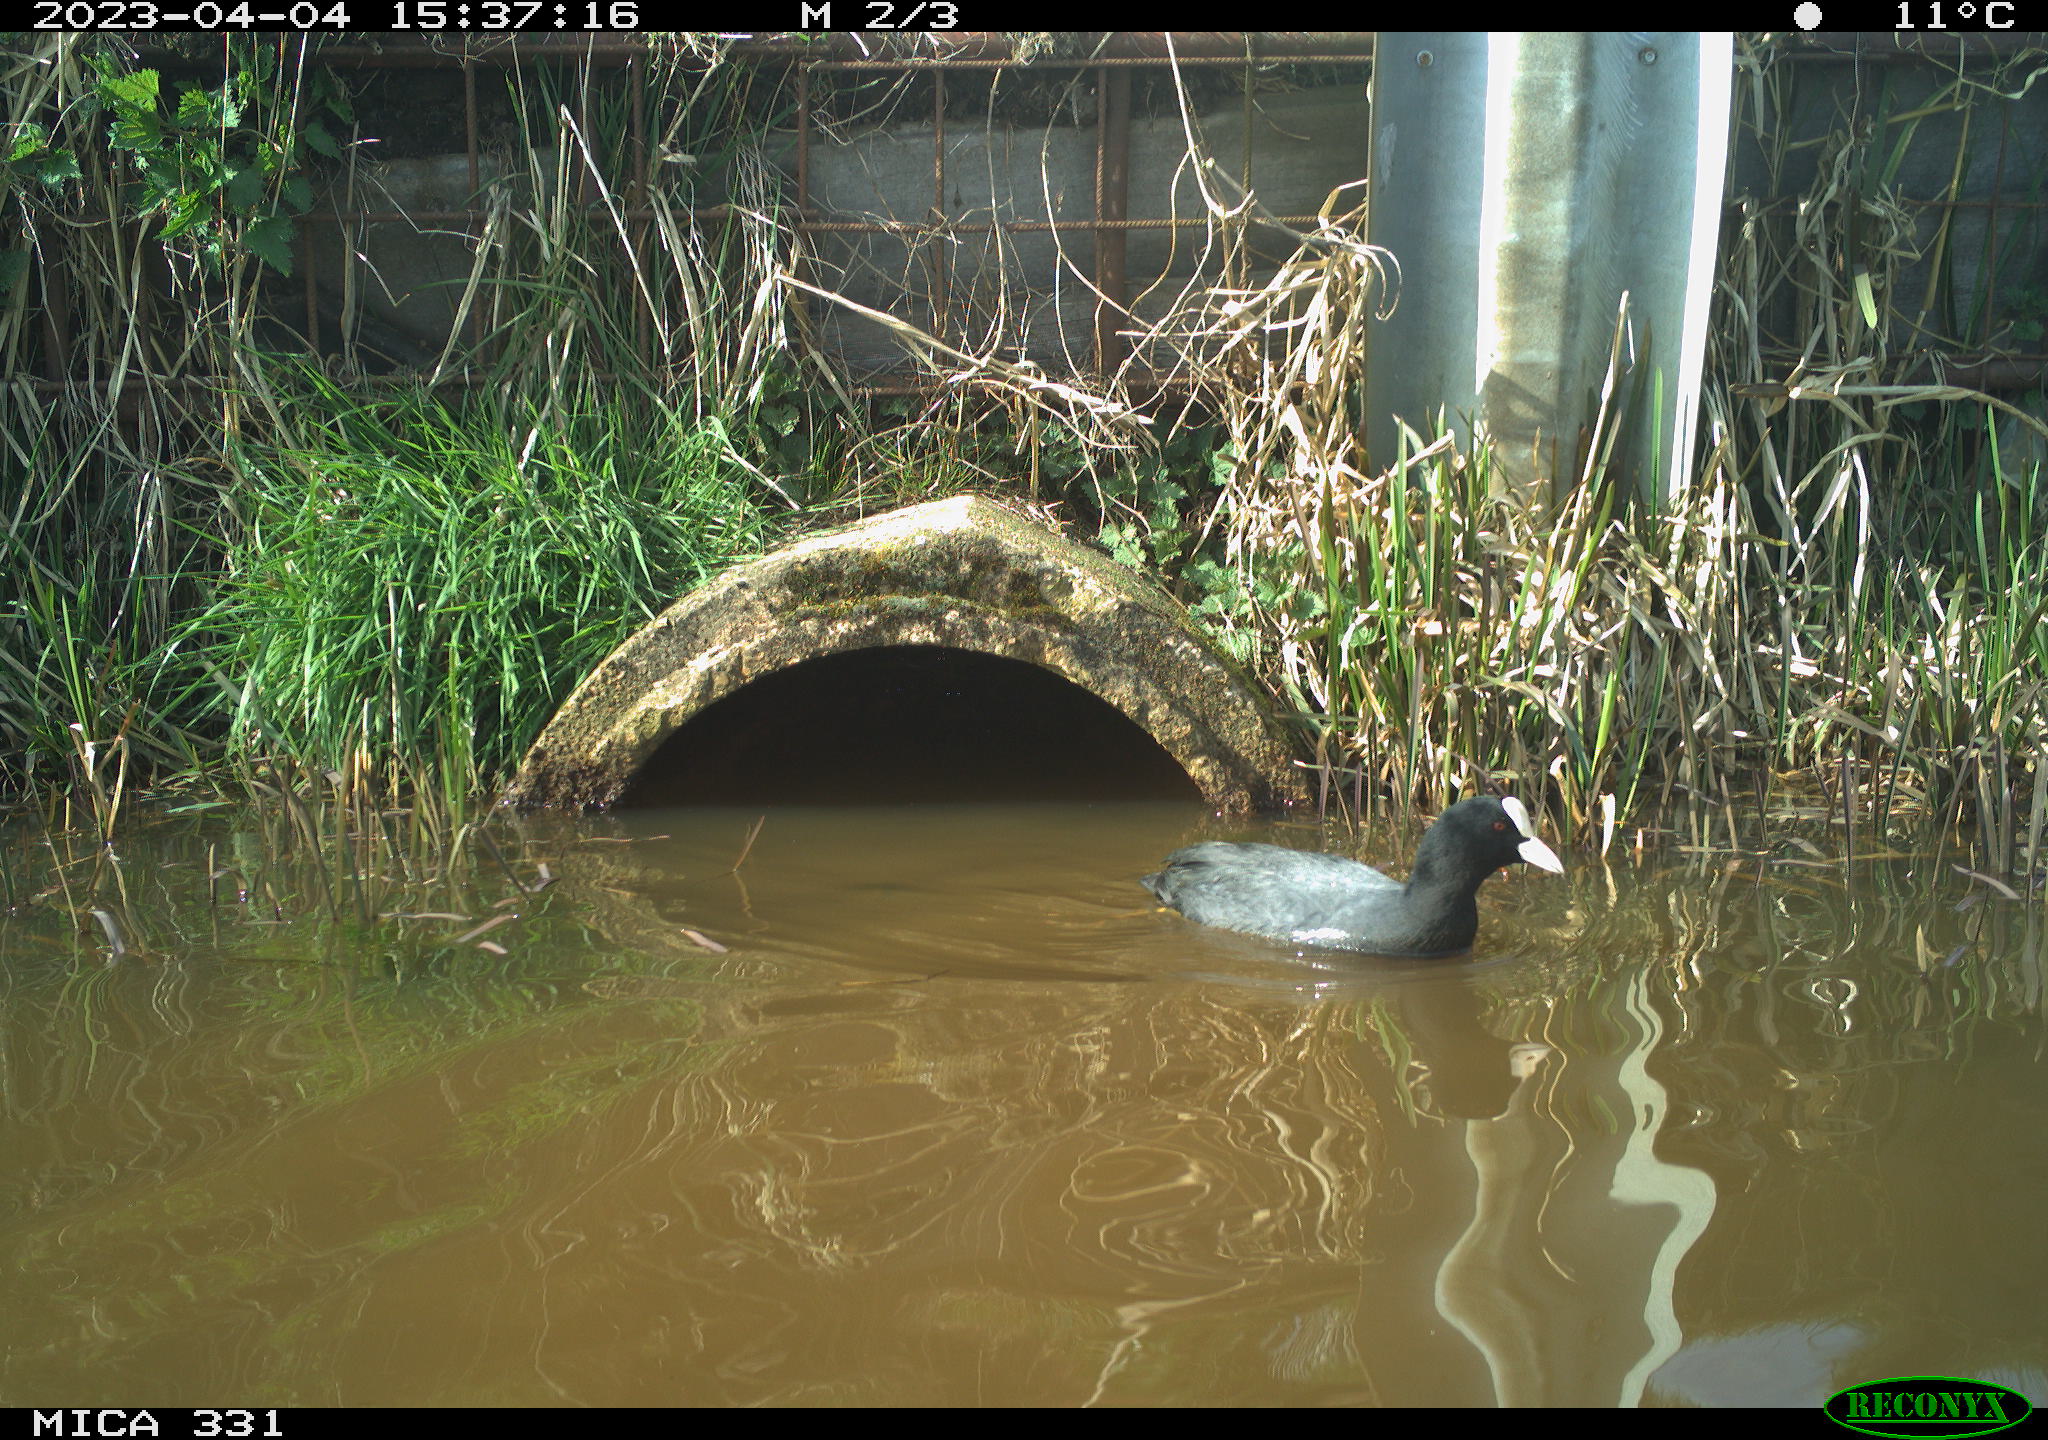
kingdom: Animalia
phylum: Chordata
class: Aves
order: Gruiformes
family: Rallidae
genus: Fulica
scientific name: Fulica atra
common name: Eurasian coot
